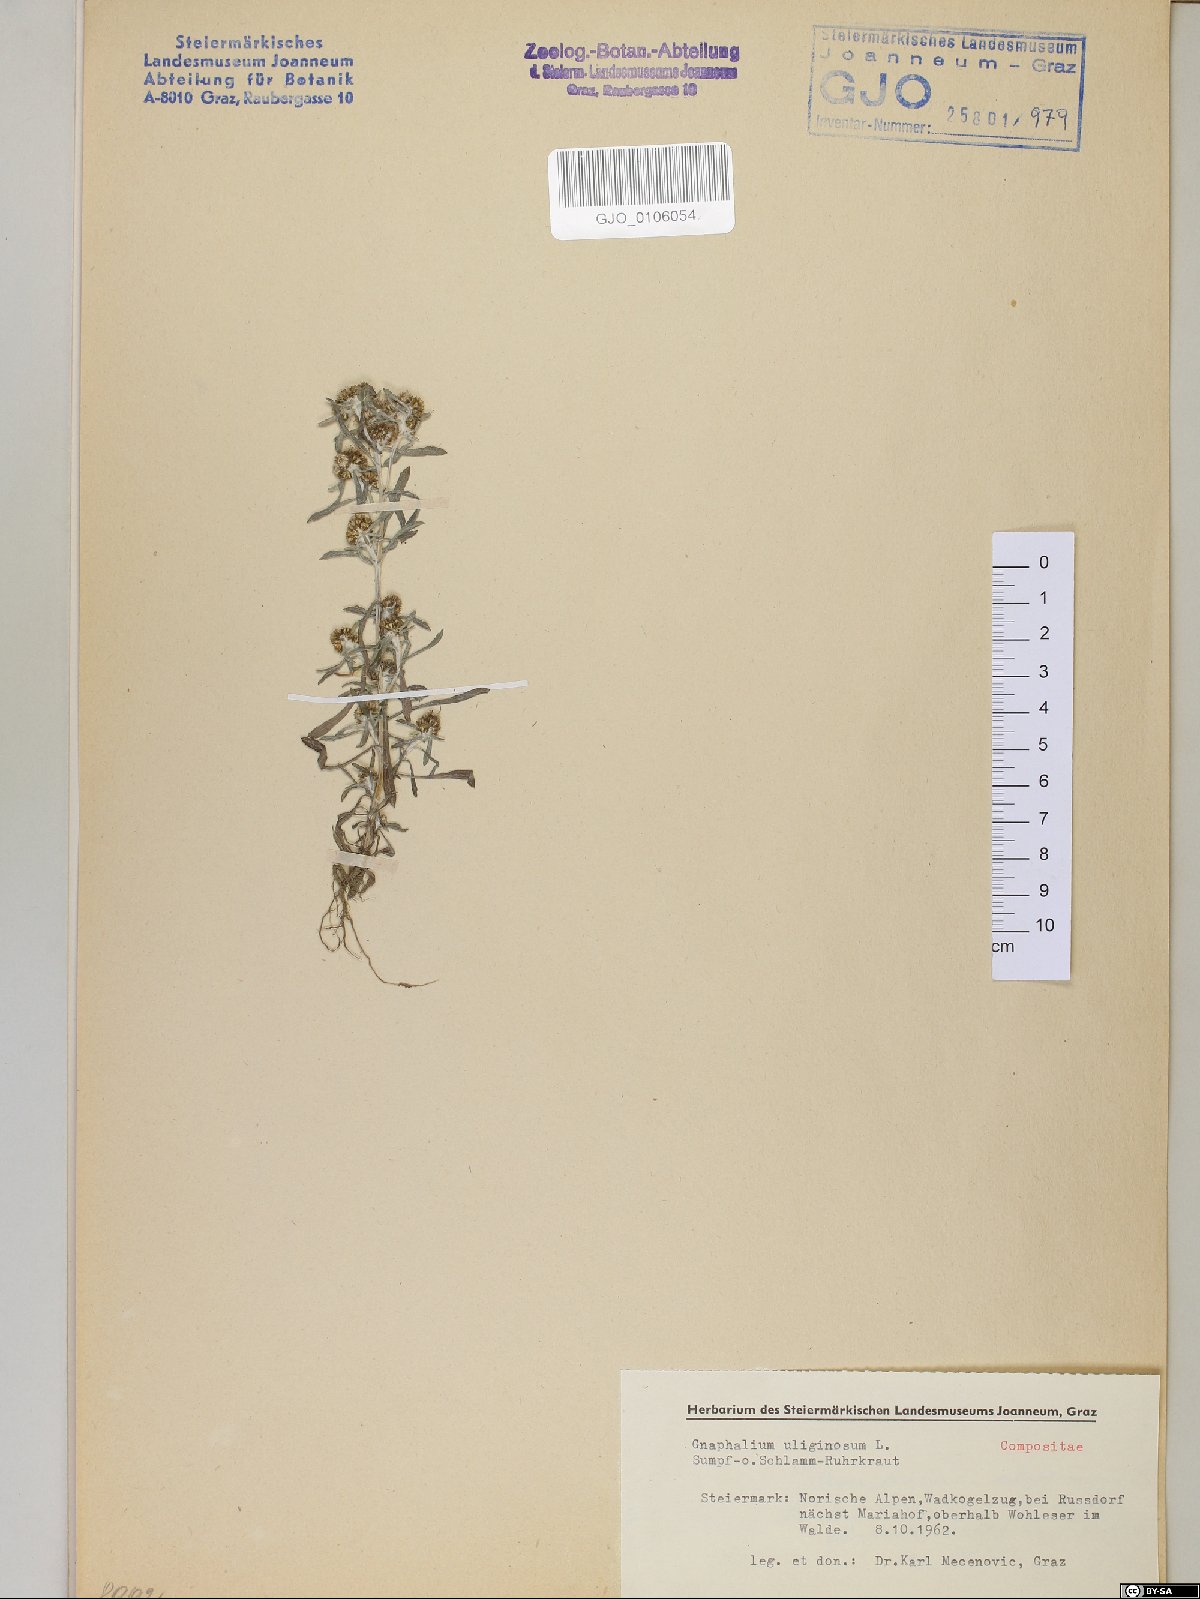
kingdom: Plantae
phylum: Tracheophyta
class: Magnoliopsida
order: Asterales
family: Asteraceae
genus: Gnaphalium
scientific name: Gnaphalium uliginosum
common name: Marsh cudweed
